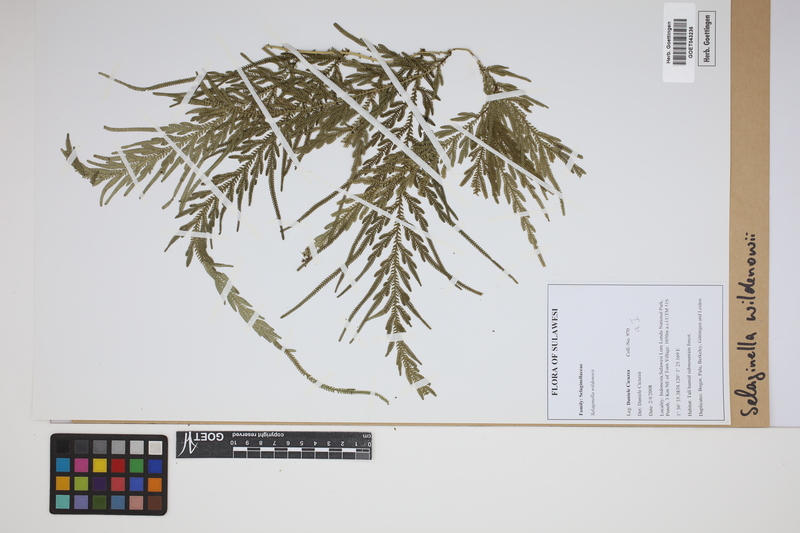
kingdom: Plantae
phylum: Tracheophyta
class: Lycopodiopsida
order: Selaginellales
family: Selaginellaceae
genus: Selaginella
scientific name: Selaginella willdenowii
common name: Willdenow's spikemoss
